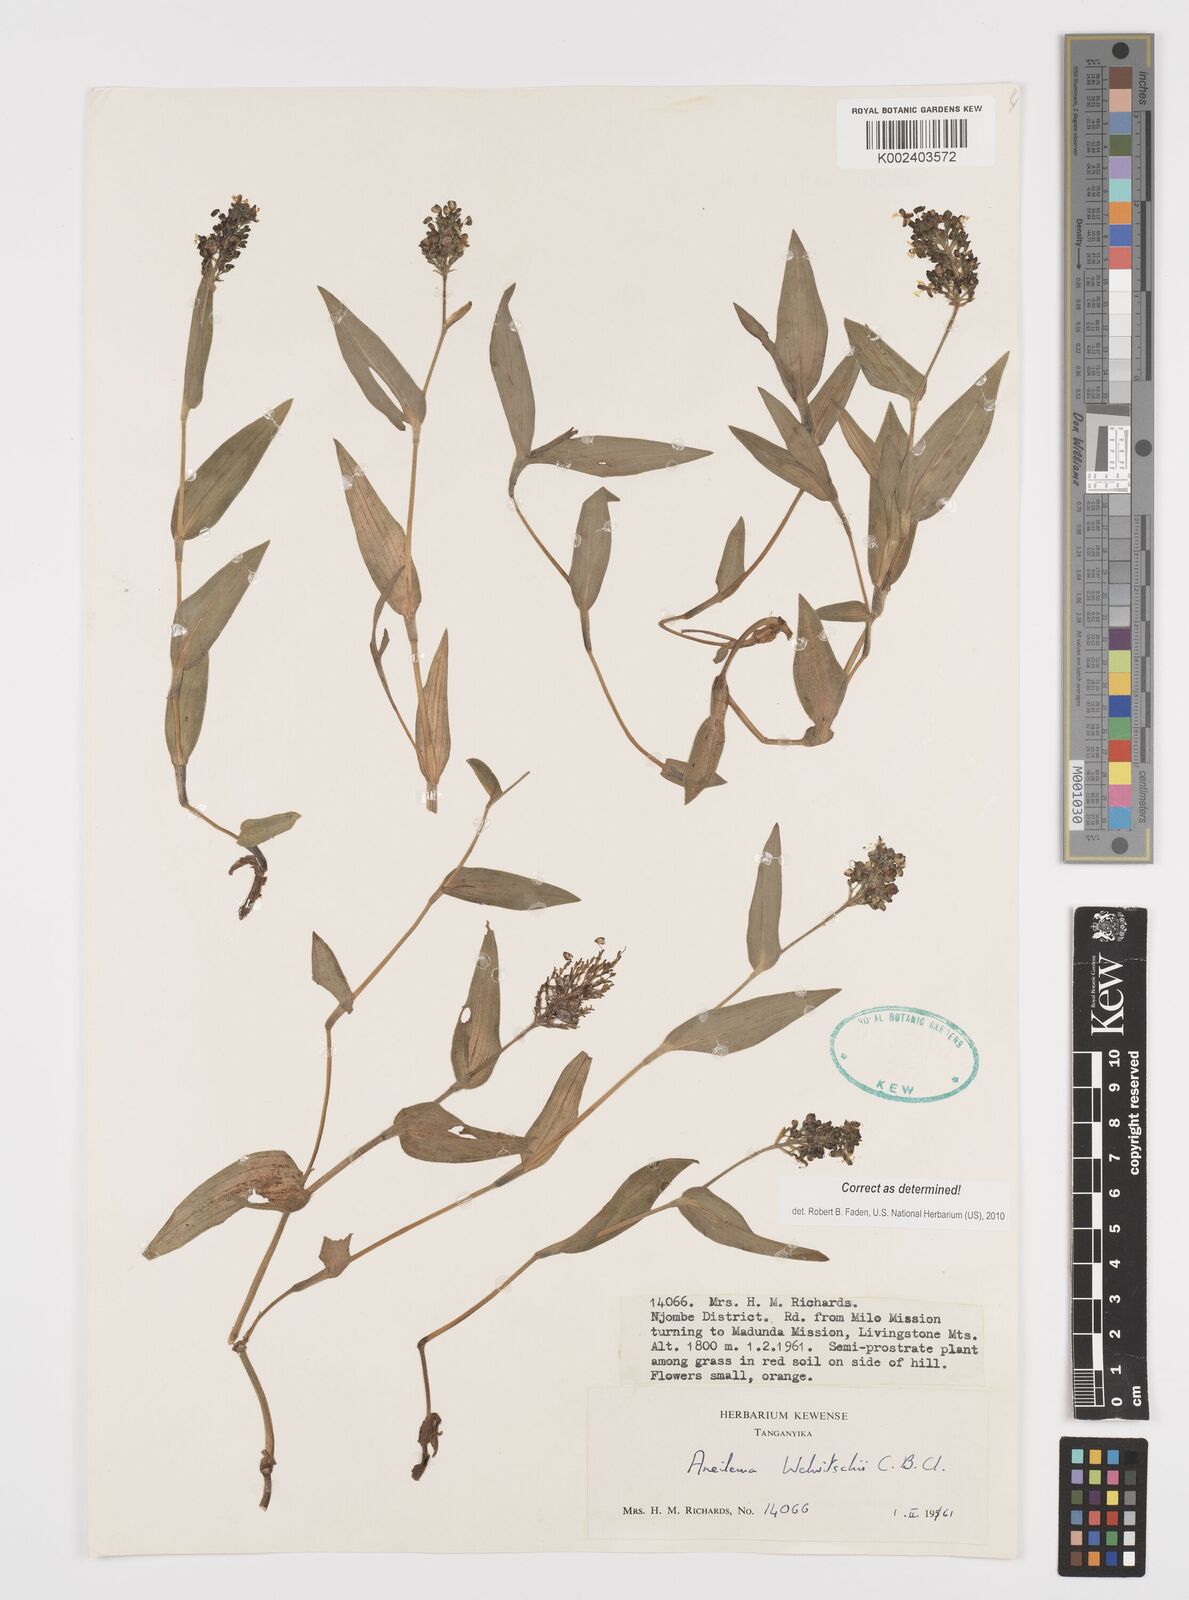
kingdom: Plantae
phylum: Tracheophyta
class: Liliopsida
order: Commelinales
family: Commelinaceae
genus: Aneilema
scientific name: Aneilema welwitschii
